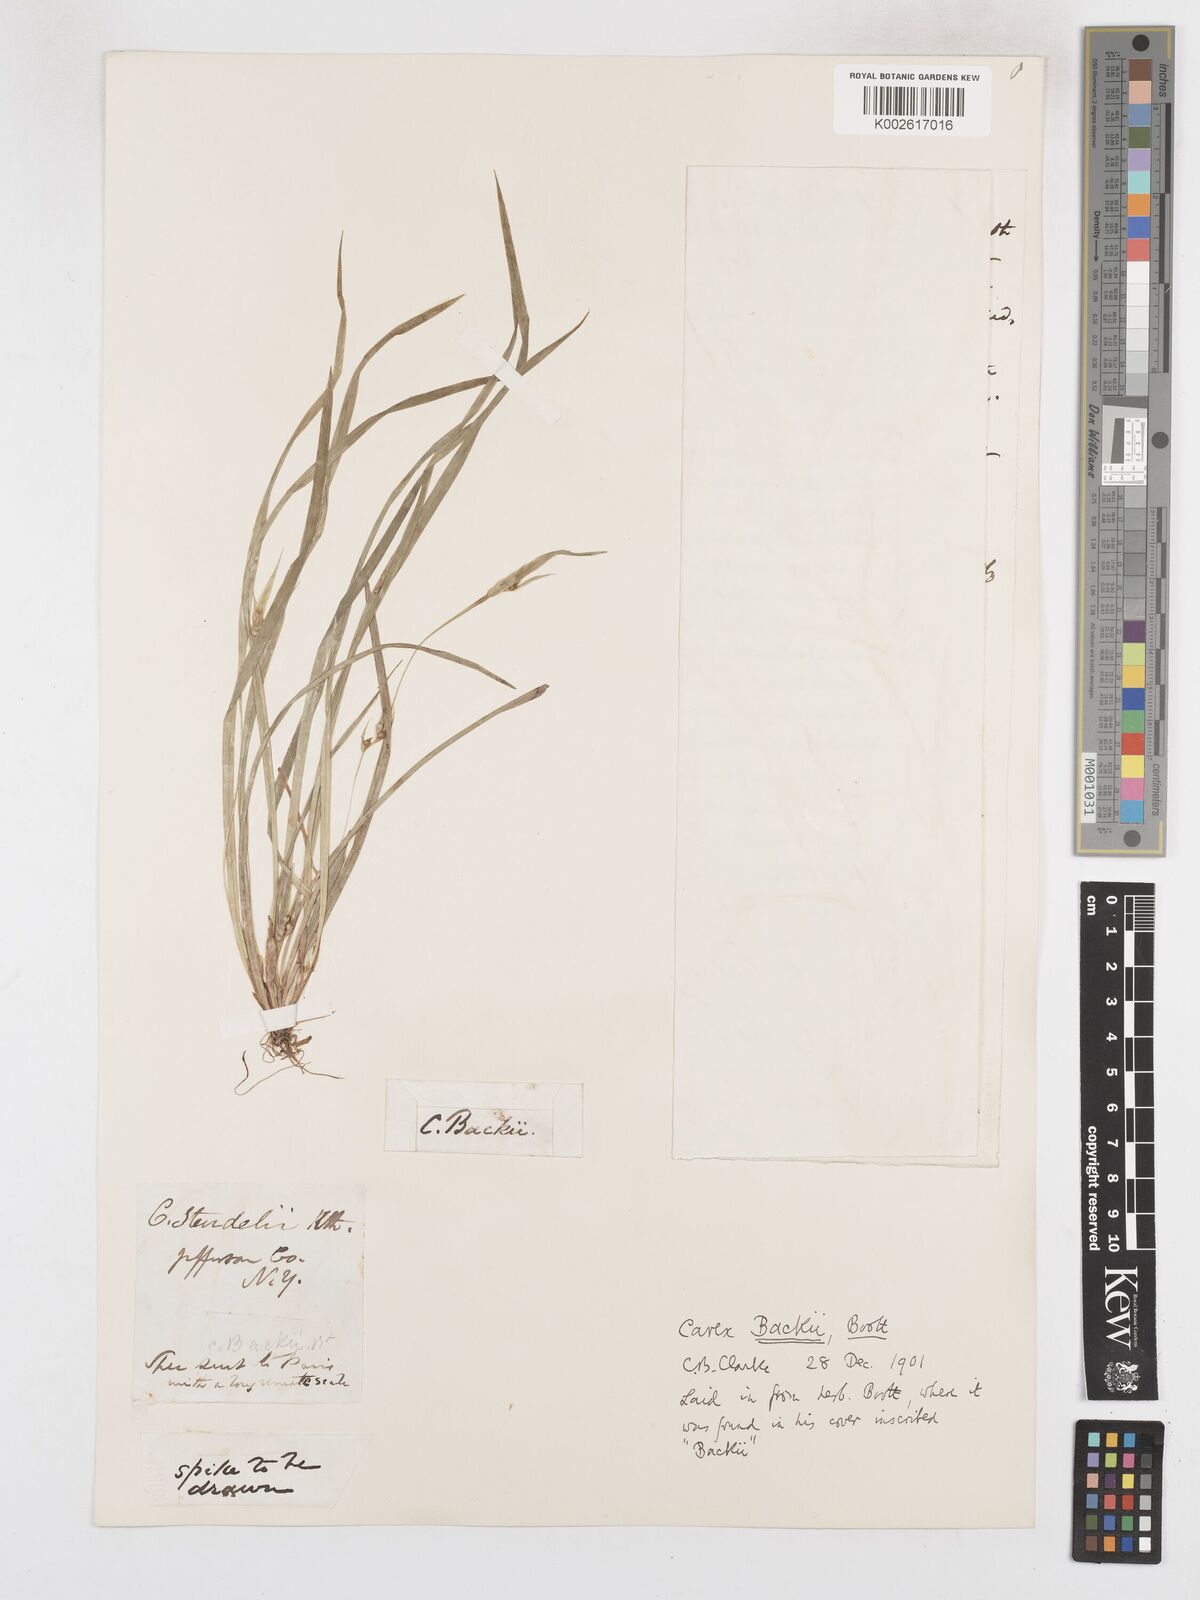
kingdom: Plantae
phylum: Tracheophyta
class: Liliopsida
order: Poales
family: Cyperaceae
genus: Carex
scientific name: Carex backii
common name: Back's sedge
